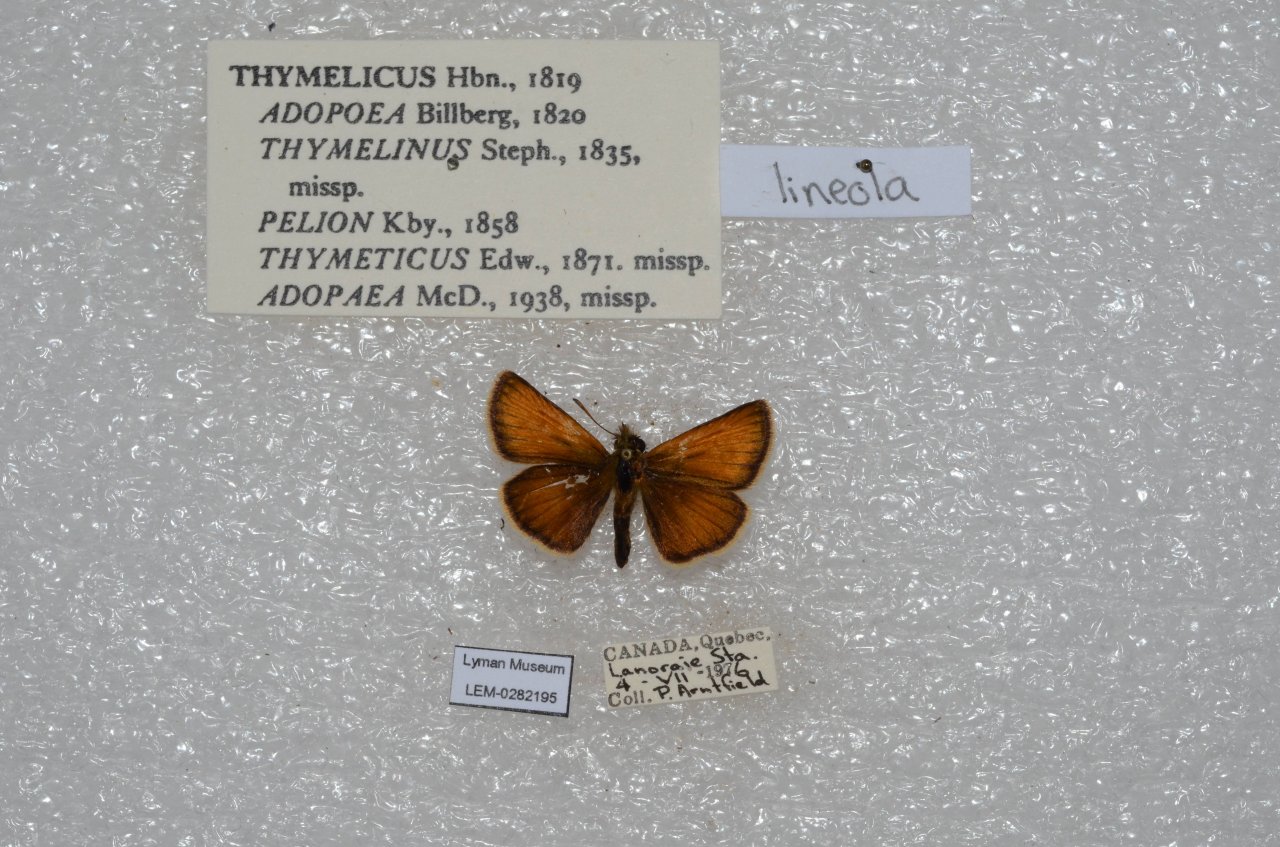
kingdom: Animalia
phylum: Arthropoda
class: Insecta
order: Lepidoptera
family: Hesperiidae
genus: Thymelicus
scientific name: Thymelicus lineola
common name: European Skipper
